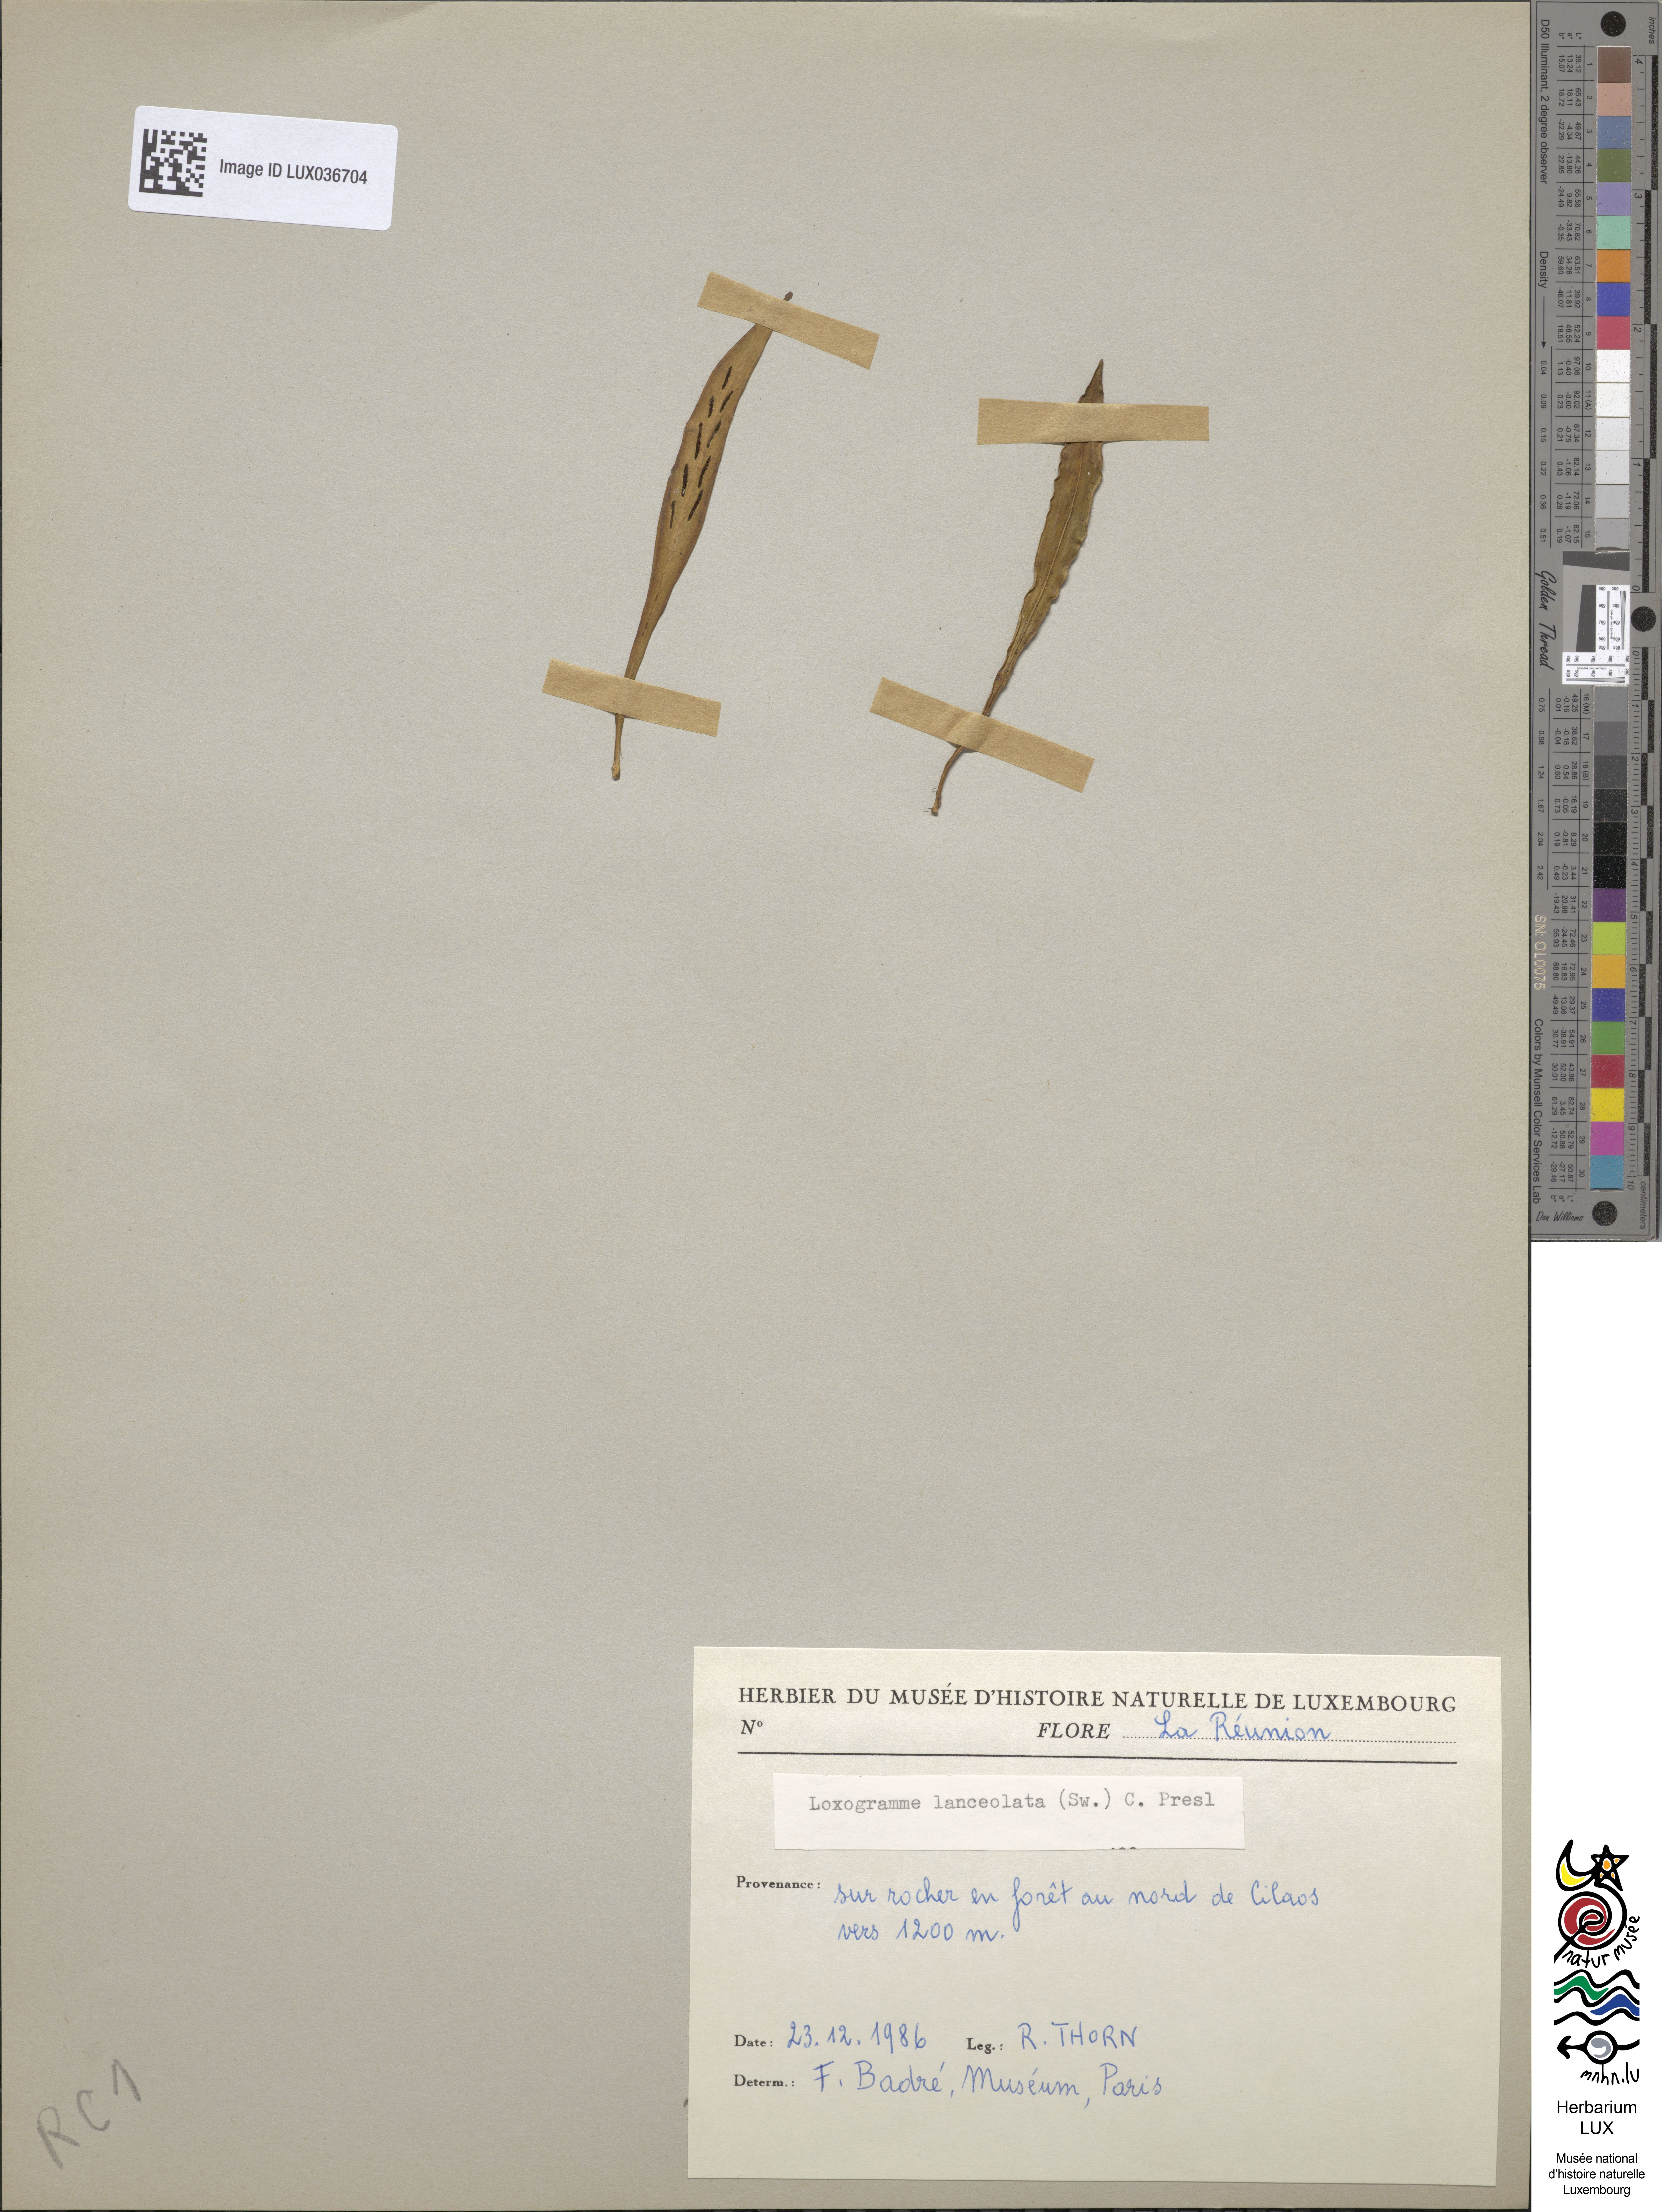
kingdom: Plantae
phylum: Tracheophyta
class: Polypodiopsida
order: Polypodiales
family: Polypodiaceae
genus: Loxogramme
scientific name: Loxogramme lanceolata
